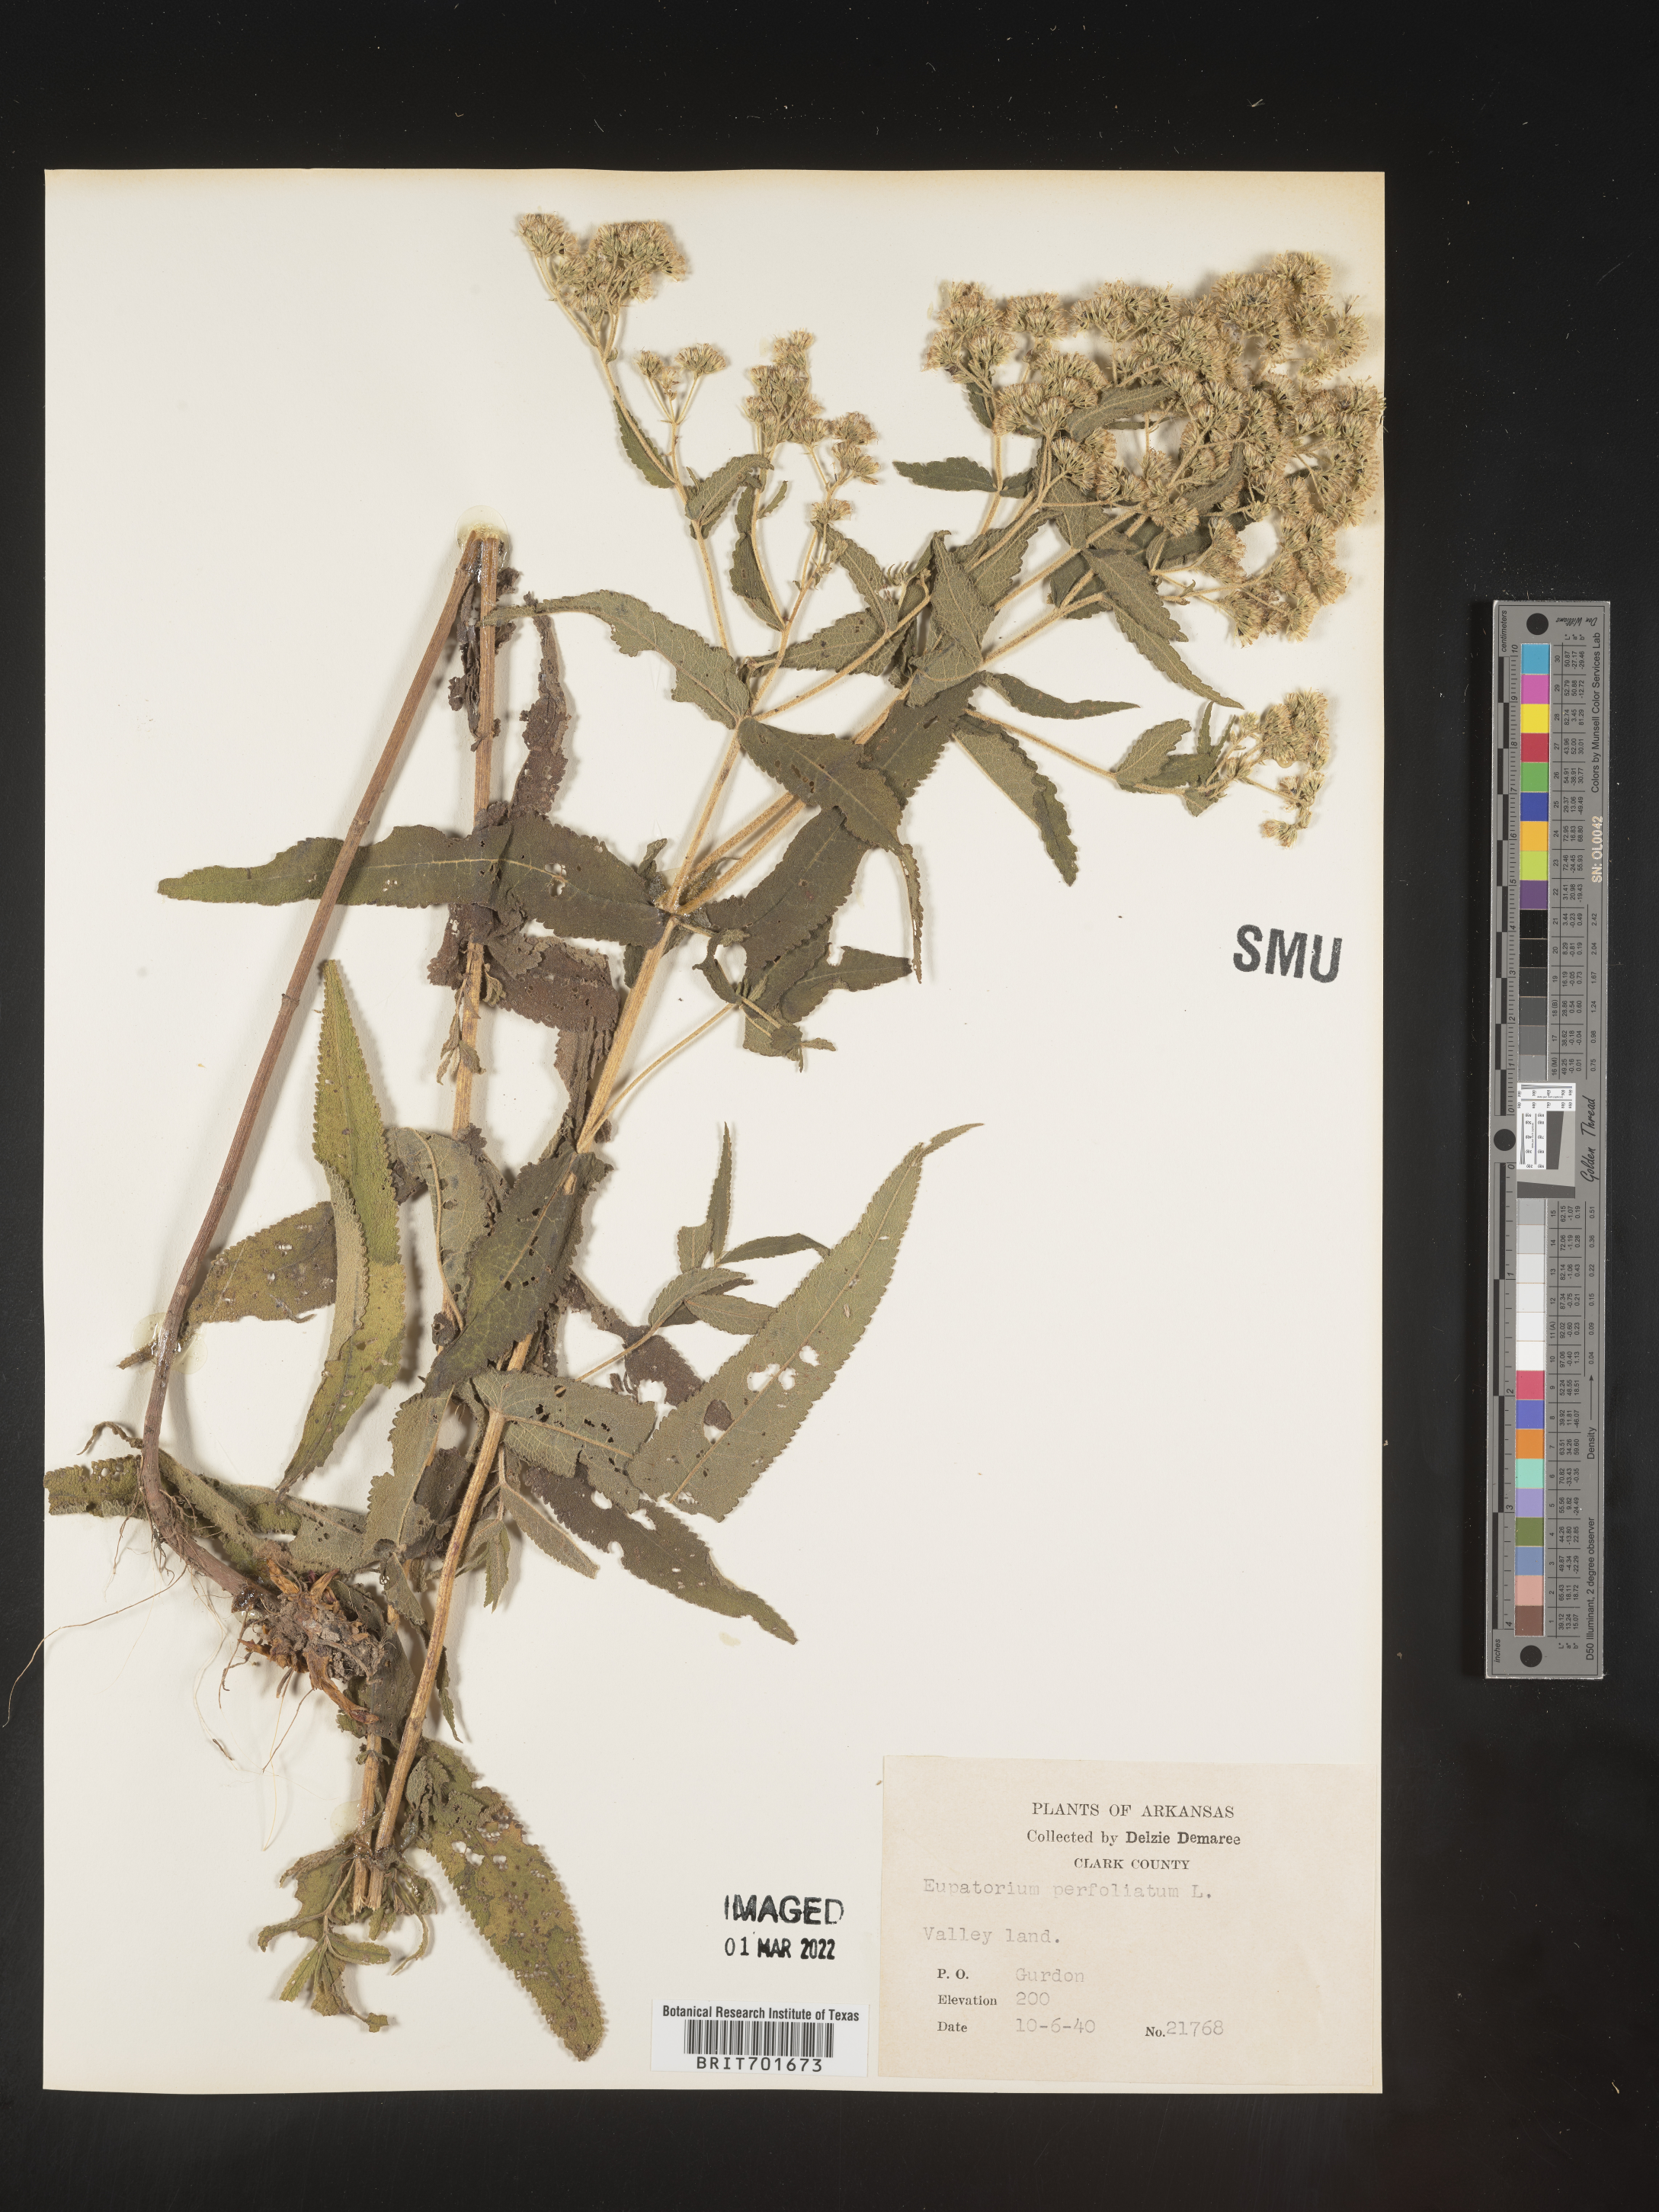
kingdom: Plantae
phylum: Tracheophyta
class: Magnoliopsida
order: Asterales
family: Asteraceae
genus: Eupatorium
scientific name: Eupatorium perfoliatum
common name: Boneset
